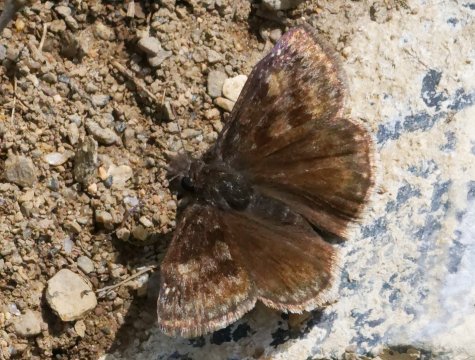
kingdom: Animalia
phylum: Arthropoda
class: Insecta
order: Lepidoptera
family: Hesperiidae
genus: Gesta
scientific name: Gesta
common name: Wild Indigo Duskywing
